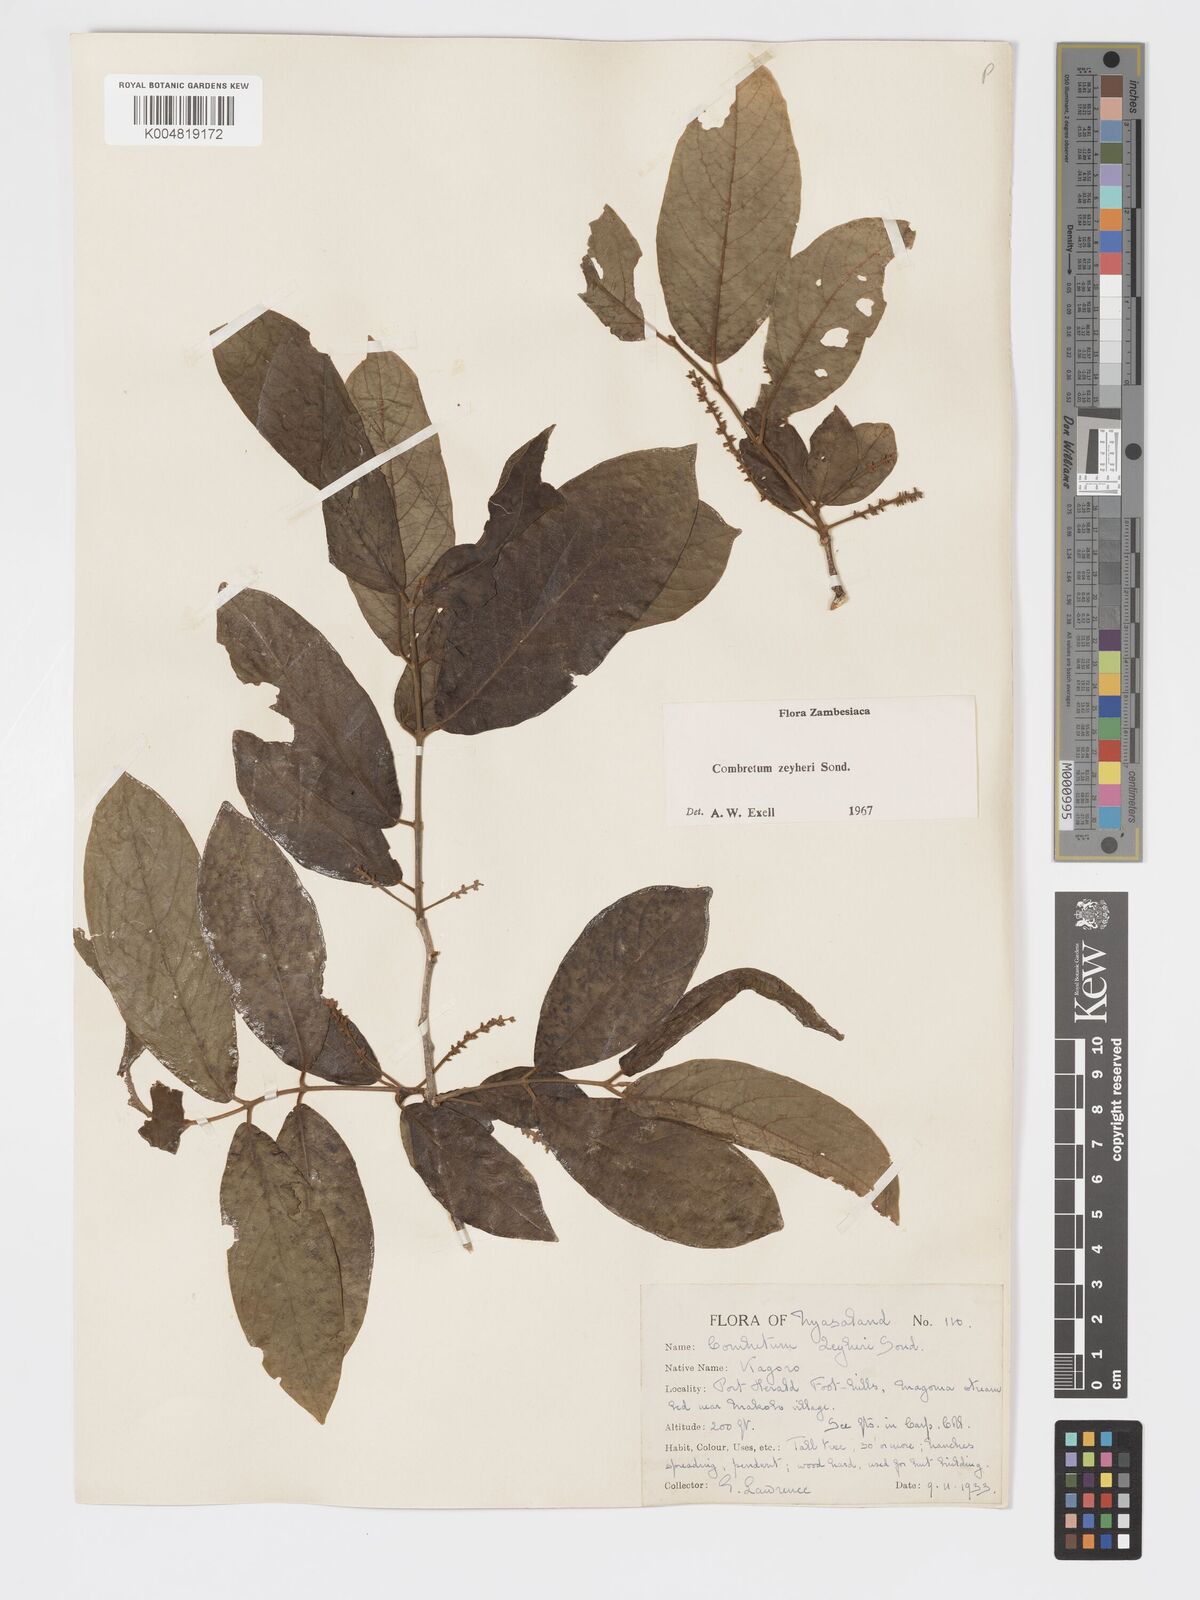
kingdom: Plantae
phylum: Tracheophyta
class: Magnoliopsida
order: Myrtales
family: Combretaceae
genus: Combretum
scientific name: Combretum zeyheri
